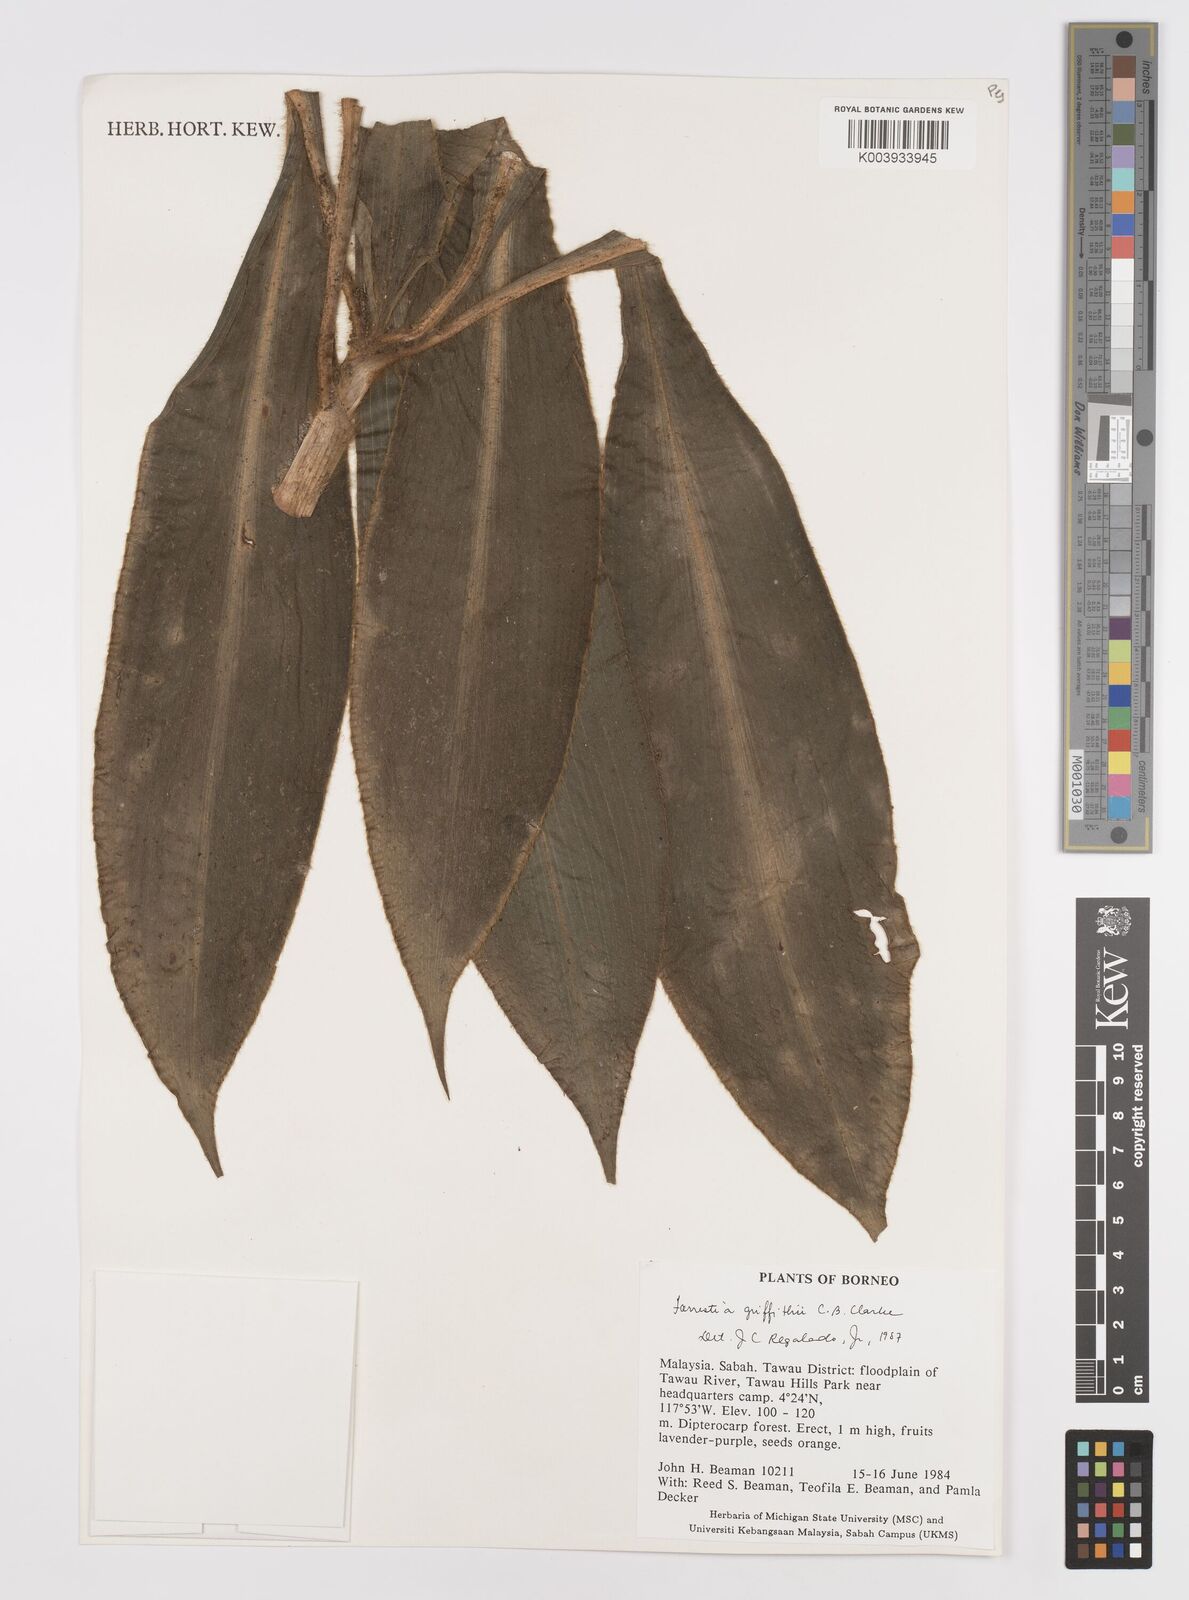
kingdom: Plantae
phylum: Tracheophyta
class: Liliopsida
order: Commelinales
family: Commelinaceae
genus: Amischotolype
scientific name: Amischotolype griffithii
